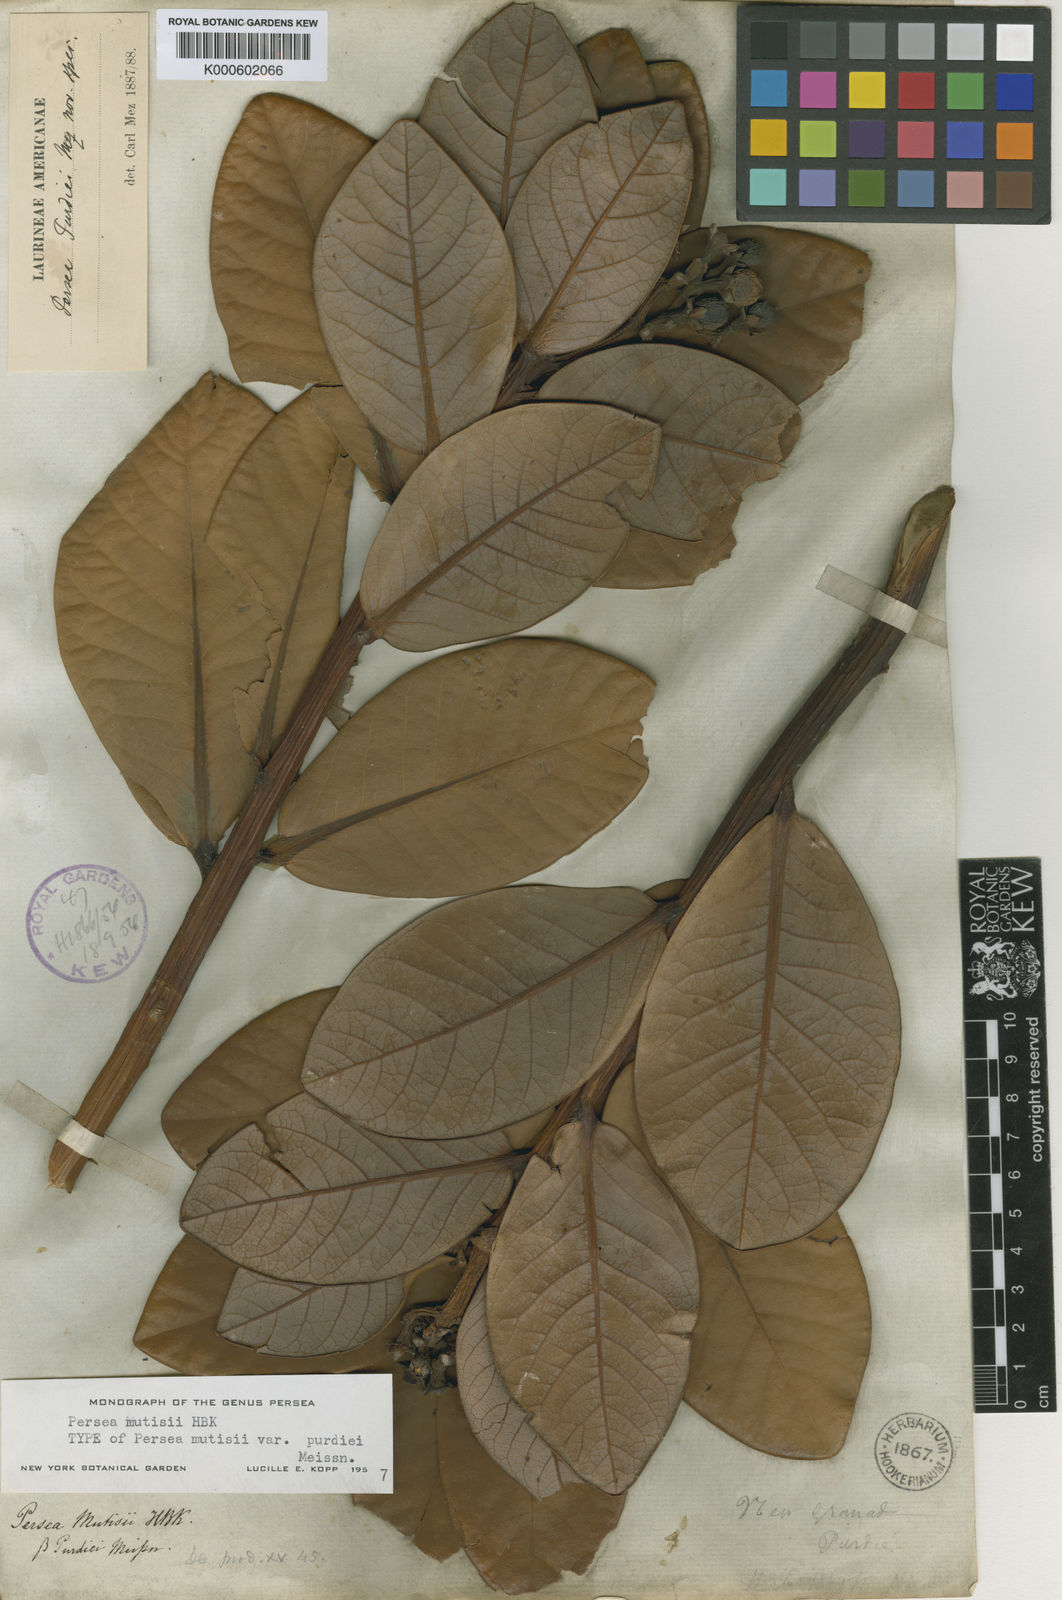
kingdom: Plantae
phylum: Tracheophyta
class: Magnoliopsida
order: Laurales
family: Lauraceae
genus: Persea
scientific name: Persea
